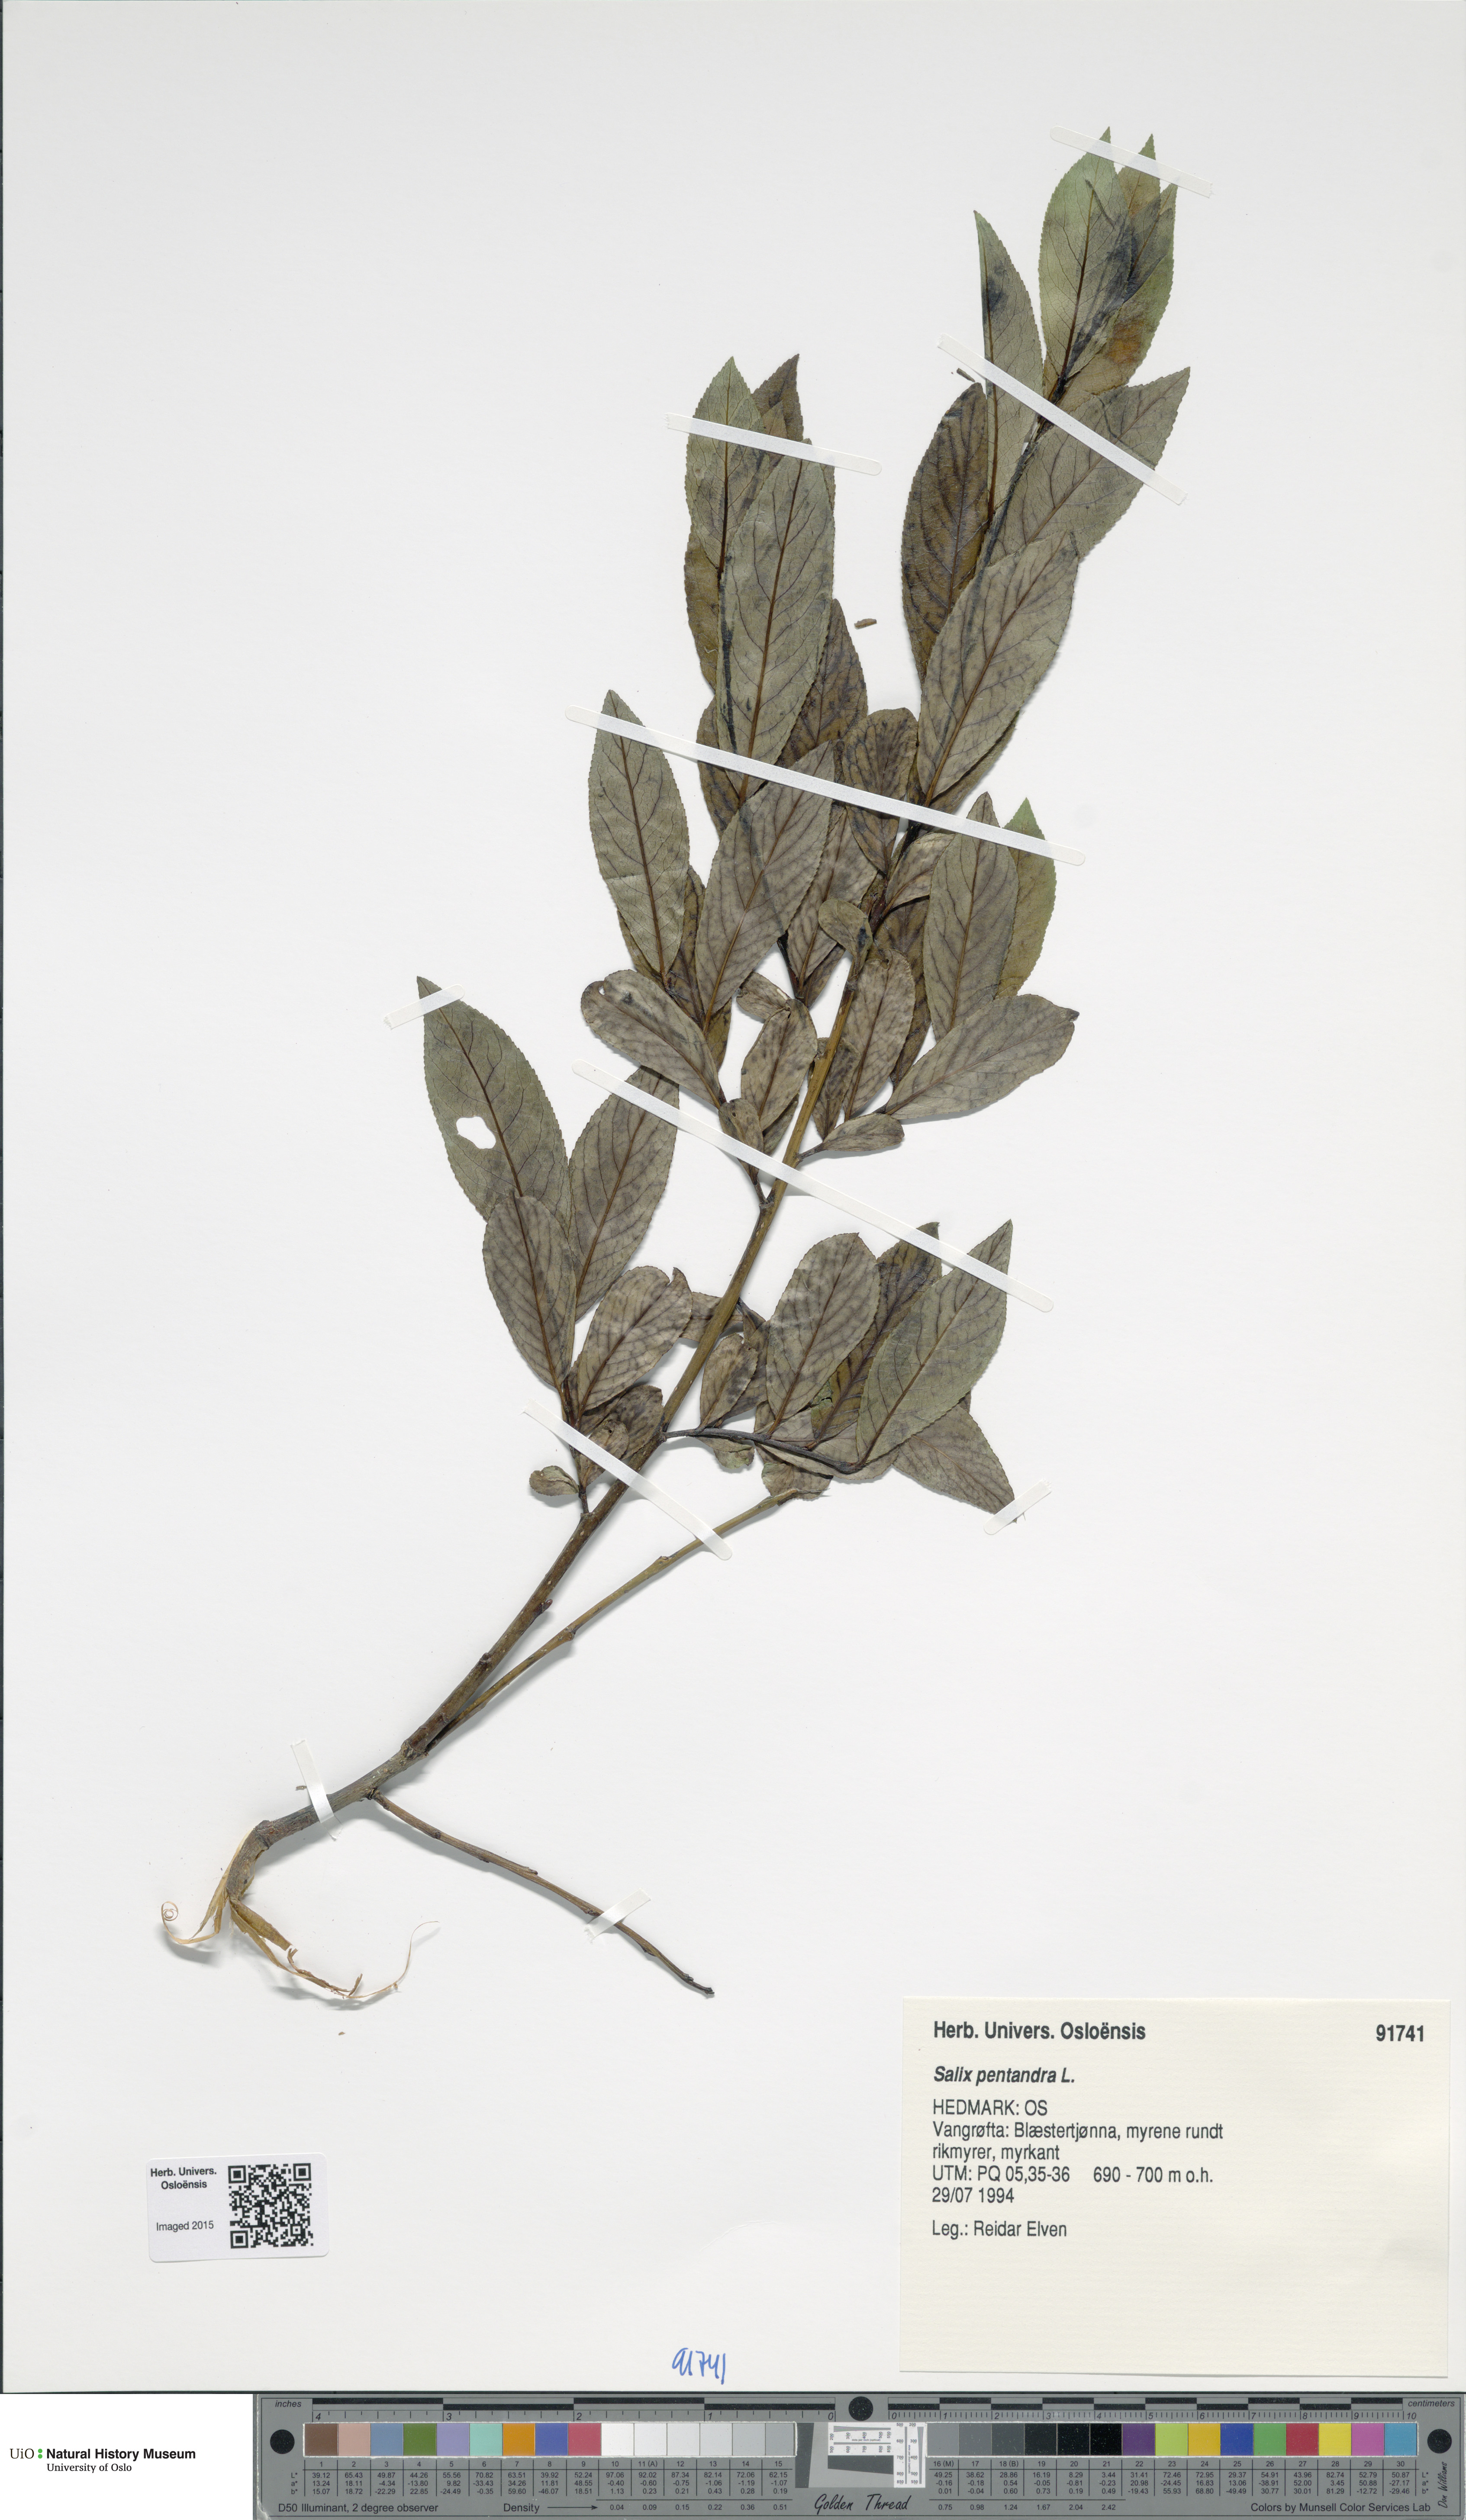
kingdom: Plantae
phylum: Tracheophyta
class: Magnoliopsida
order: Malpighiales
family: Salicaceae
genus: Salix
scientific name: Salix pentandra
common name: Bay willow
